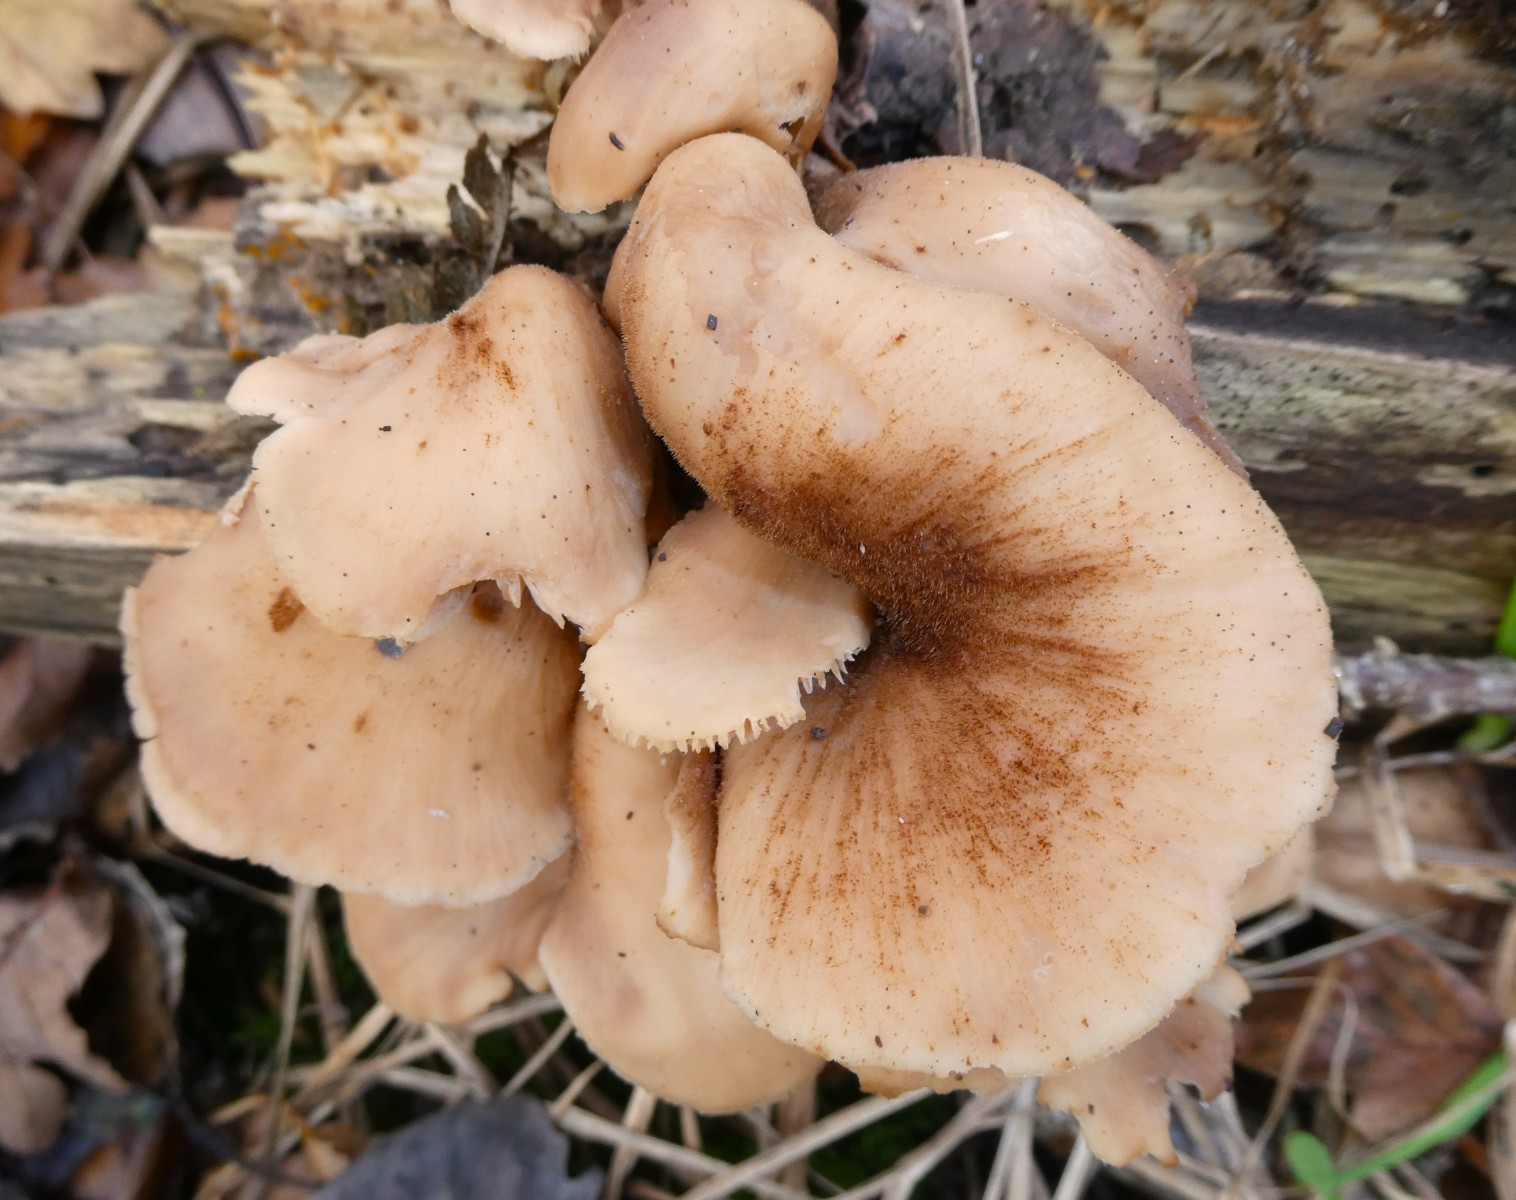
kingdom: Fungi
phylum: Basidiomycota
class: Agaricomycetes
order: Russulales
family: Auriscalpiaceae
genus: Lentinellus
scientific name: Lentinellus ursinus
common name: børstehåret savbladhat
